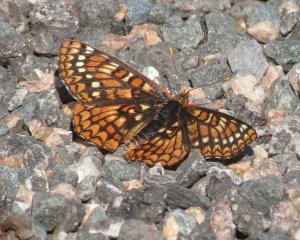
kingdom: Animalia
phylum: Arthropoda
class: Insecta
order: Lepidoptera
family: Nymphalidae
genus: Occidryas
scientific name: Occidryas anicia
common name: Anicia Checkerspot
